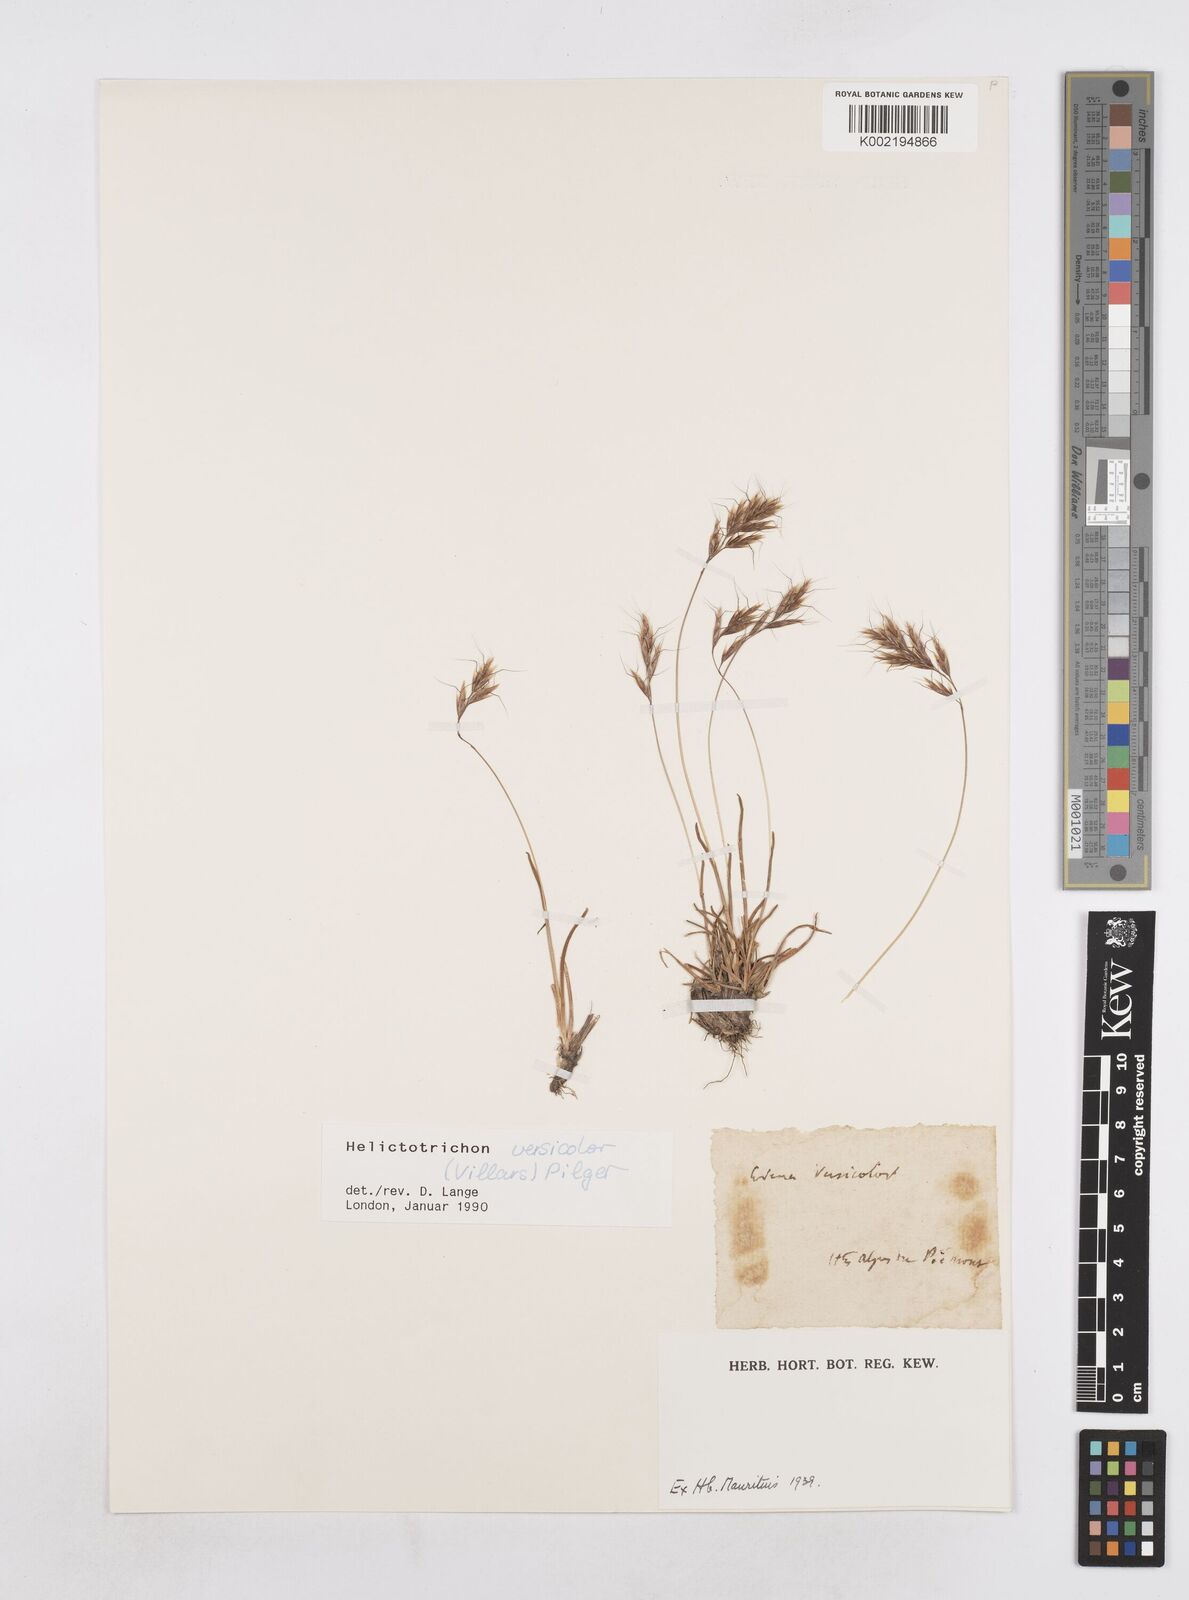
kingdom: Plantae
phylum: Tracheophyta
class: Liliopsida
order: Poales
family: Poaceae
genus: Helictochloa
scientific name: Helictochloa versicolor
